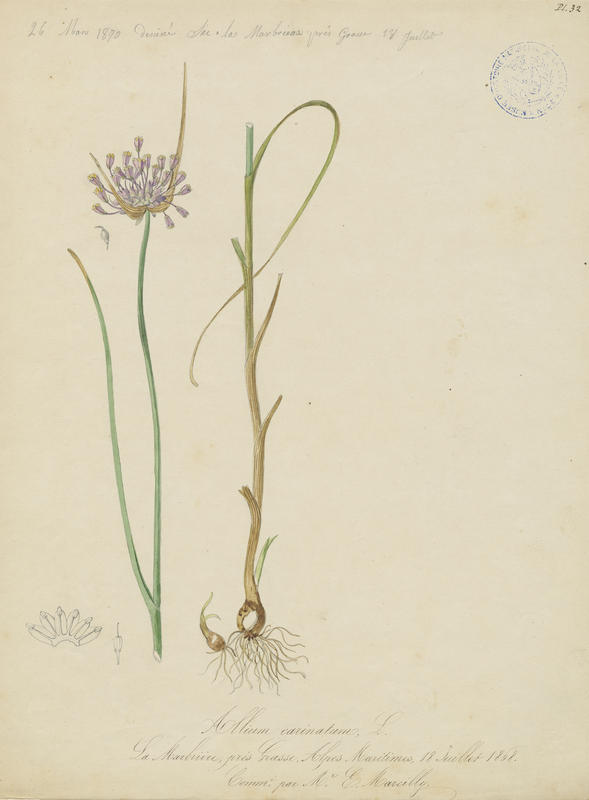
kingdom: Plantae
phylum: Tracheophyta
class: Liliopsida
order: Asparagales
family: Amaryllidaceae
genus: Allium
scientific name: Allium carinatum
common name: Keeled garlic
